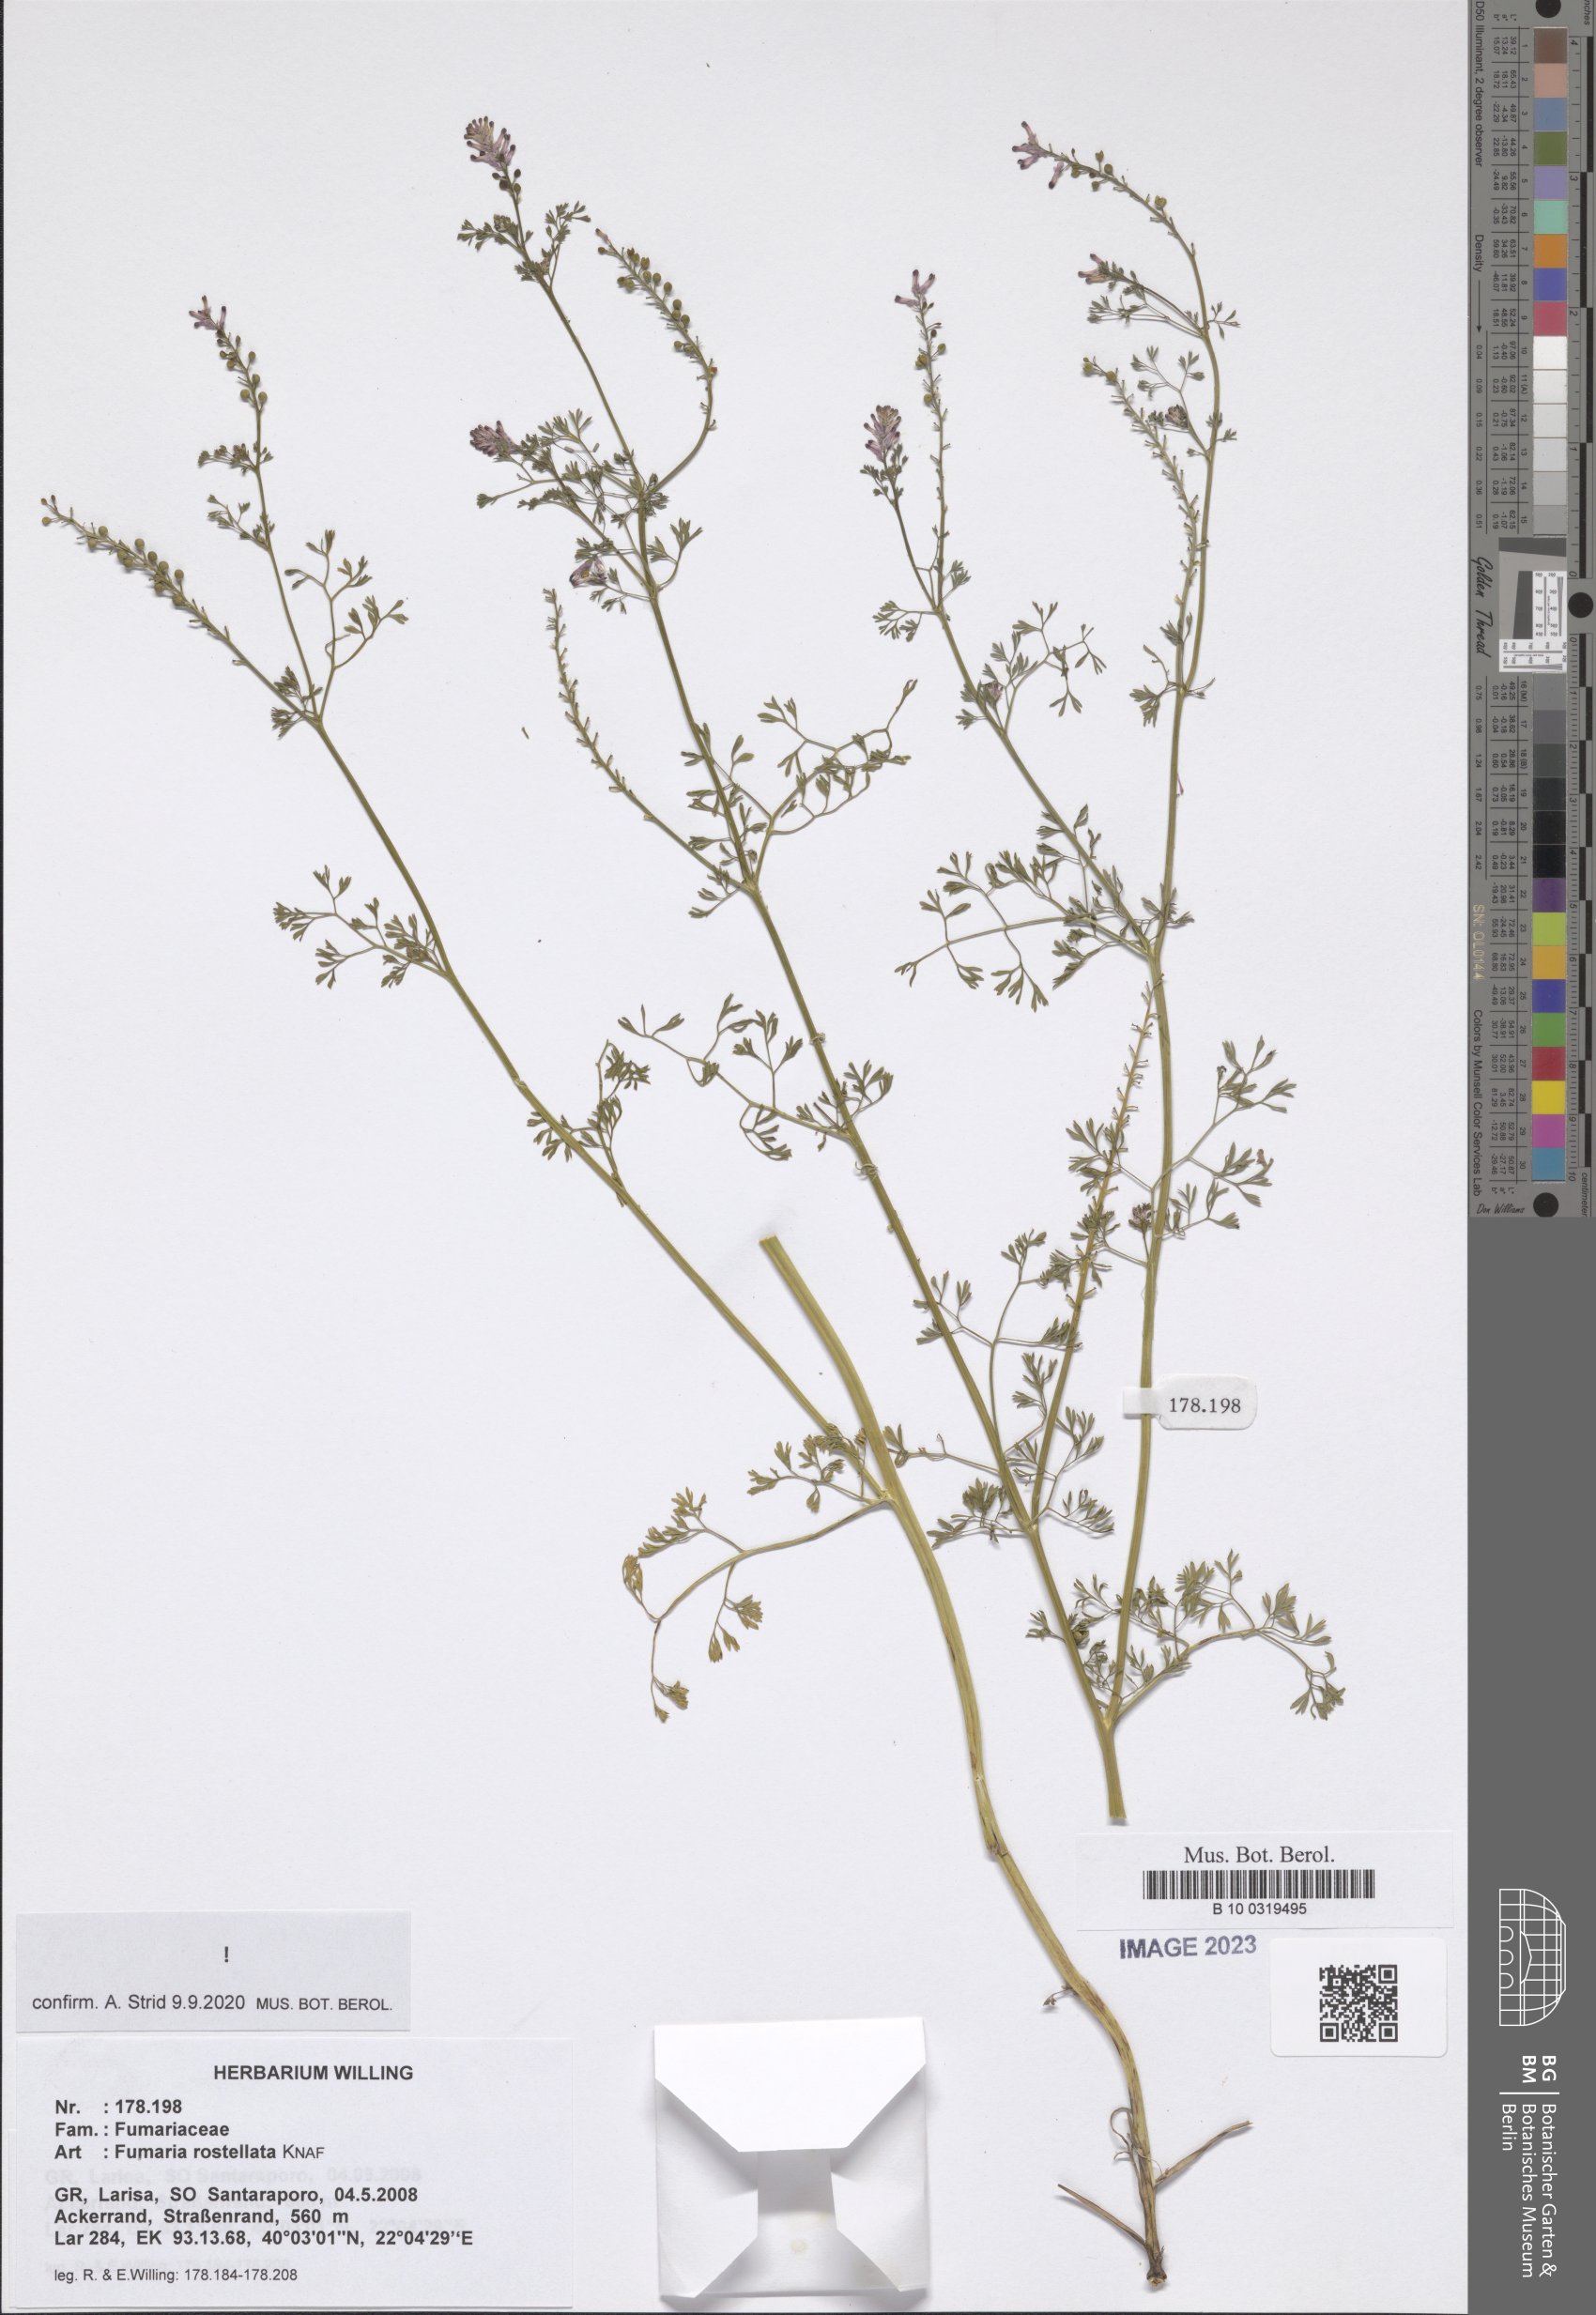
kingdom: Plantae
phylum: Tracheophyta
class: Magnoliopsida
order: Ranunculales
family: Papaveraceae
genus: Fumaria
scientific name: Fumaria rostellata
